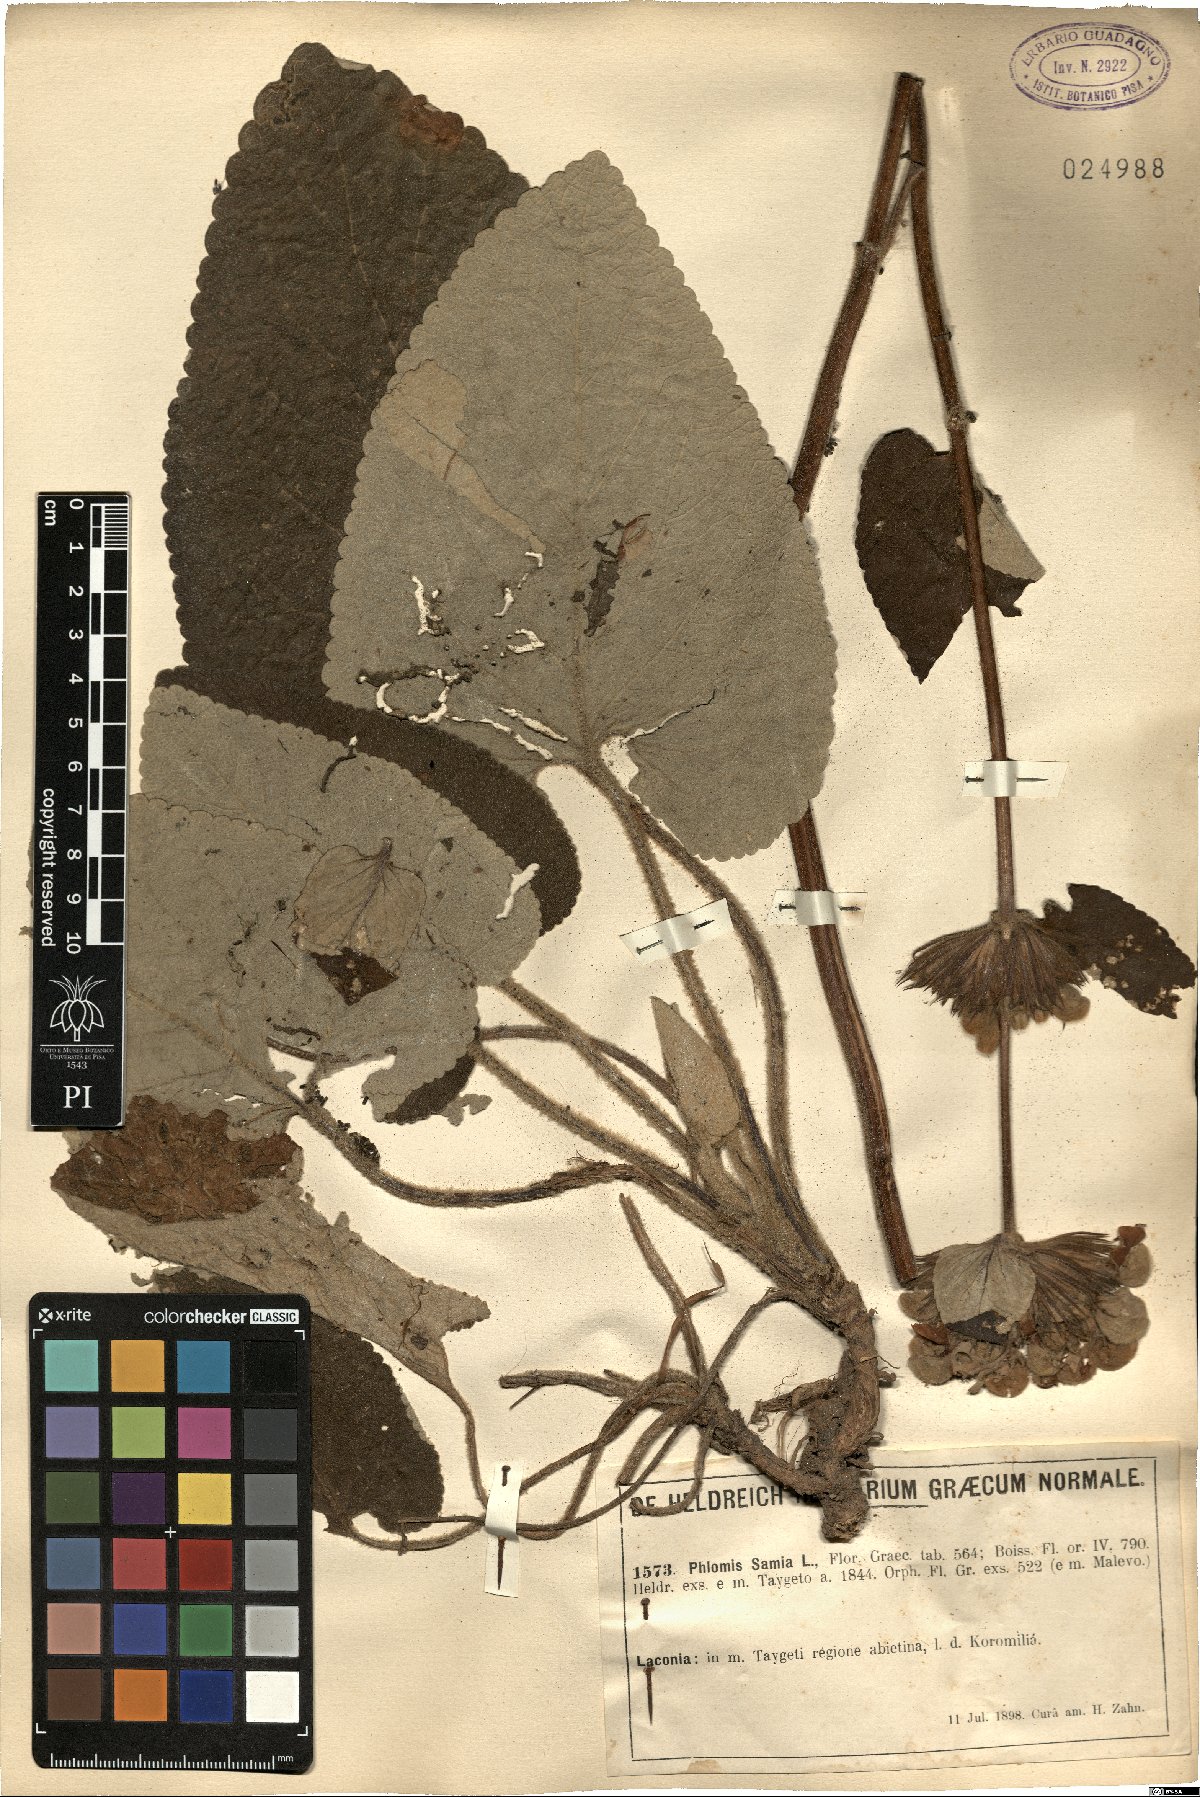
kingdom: Plantae
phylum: Tracheophyta
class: Magnoliopsida
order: Lamiales
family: Lamiaceae
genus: Phlomis
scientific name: Phlomis samia
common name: Greek sage
